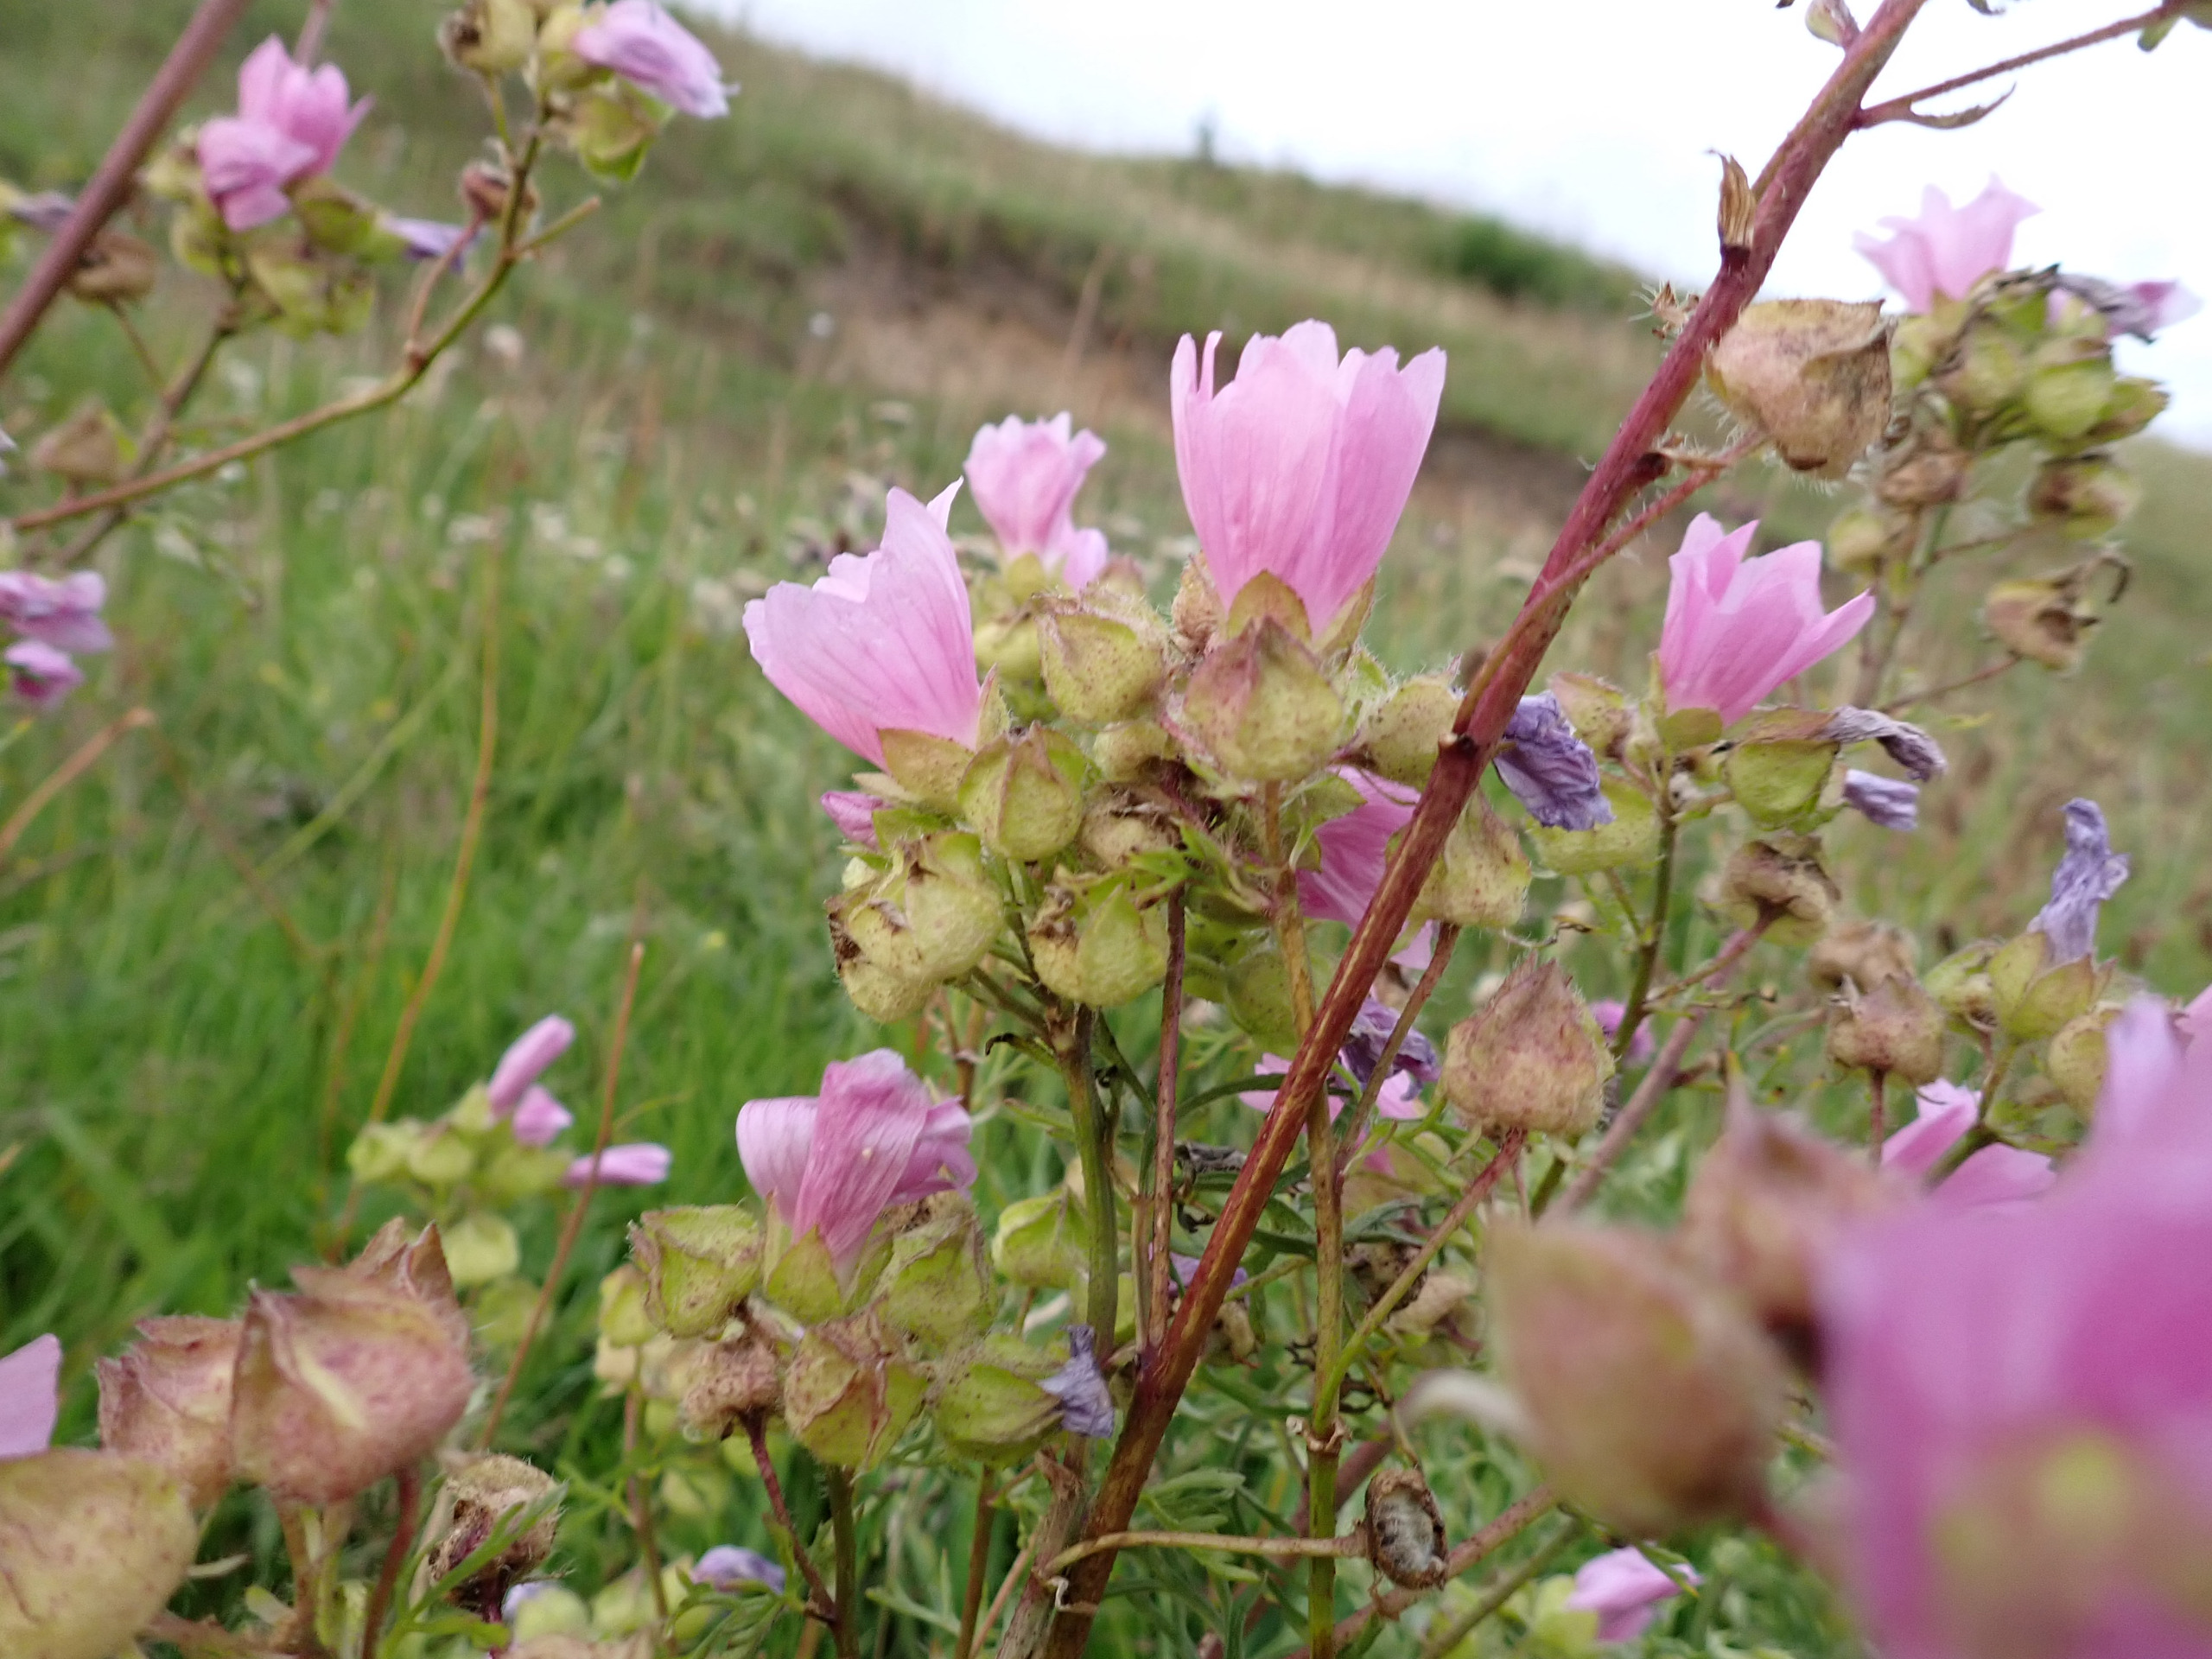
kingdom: Plantae
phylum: Tracheophyta
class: Magnoliopsida
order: Malvales
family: Malvaceae
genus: Malva
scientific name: Malva moschata
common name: Moskus-katost
